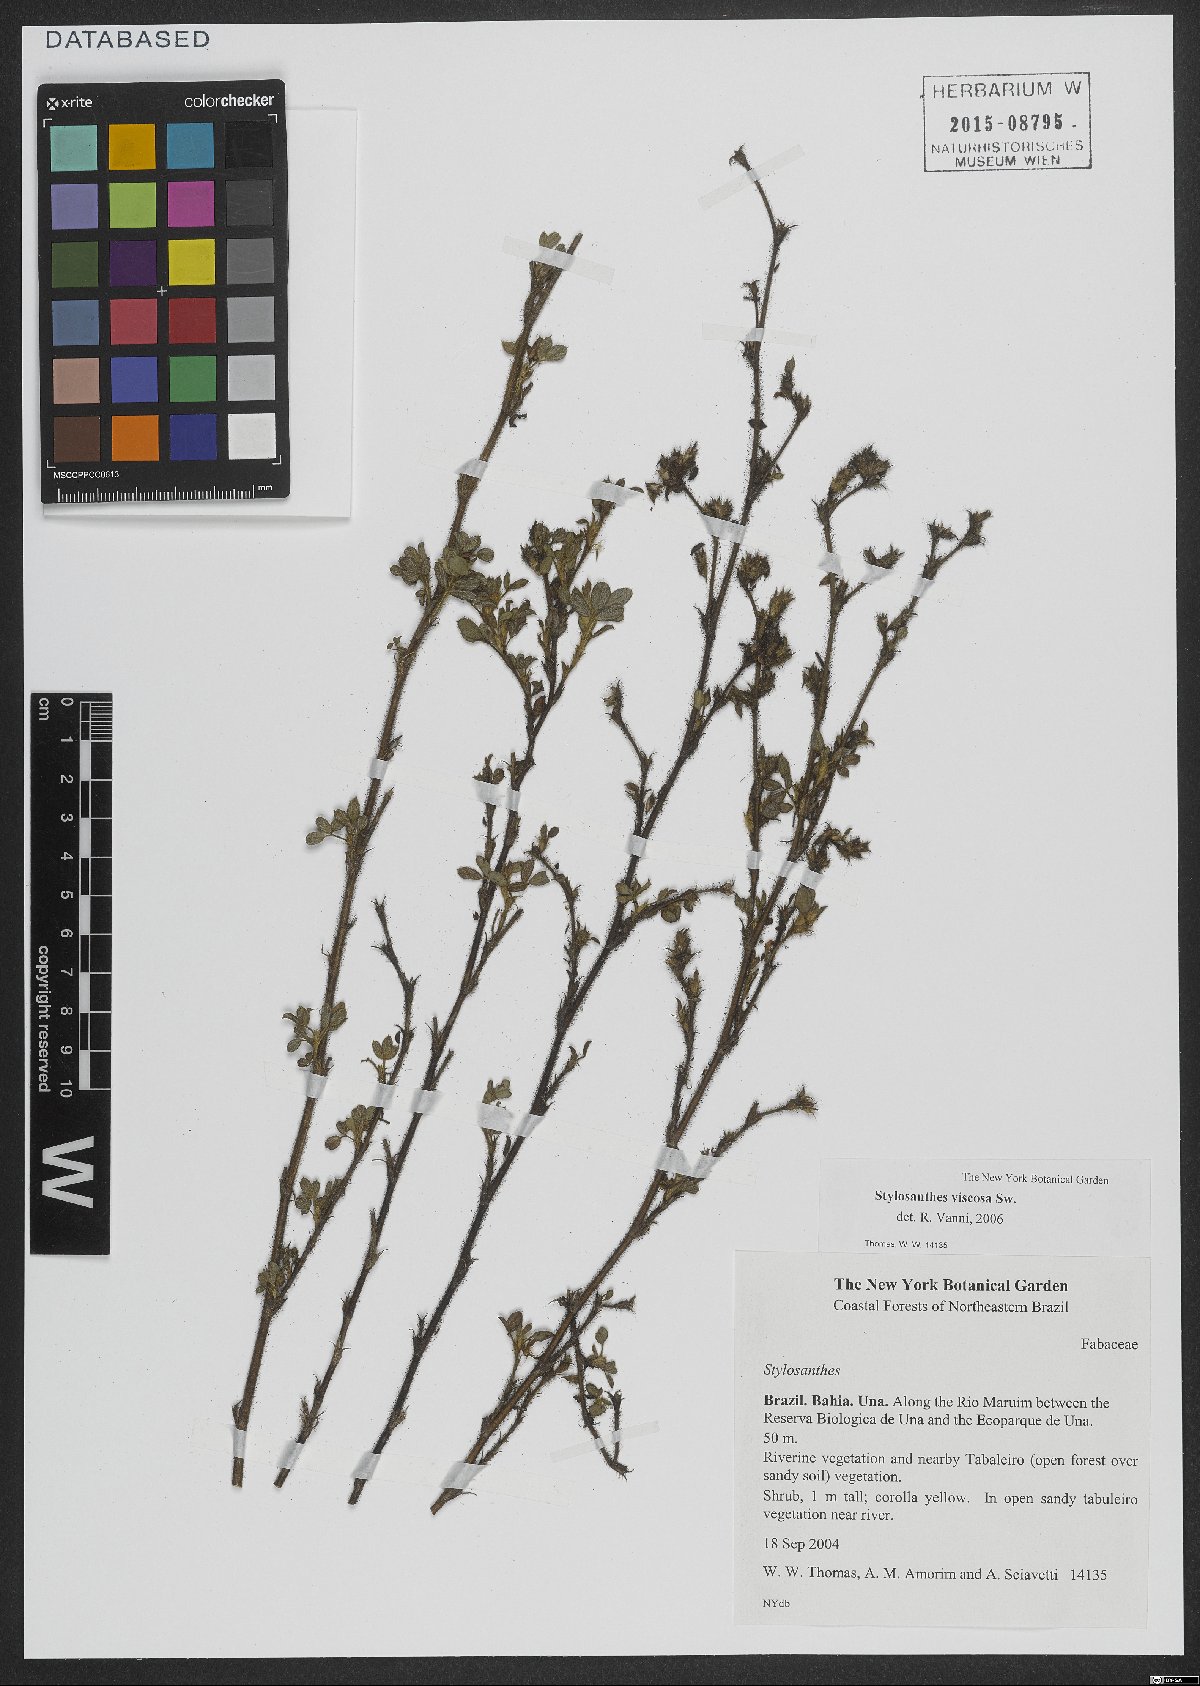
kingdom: Plantae
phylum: Tracheophyta
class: Magnoliopsida
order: Fabales
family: Fabaceae
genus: Stylosanthes
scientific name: Stylosanthes viscosa
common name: Viscid pencil-flower
